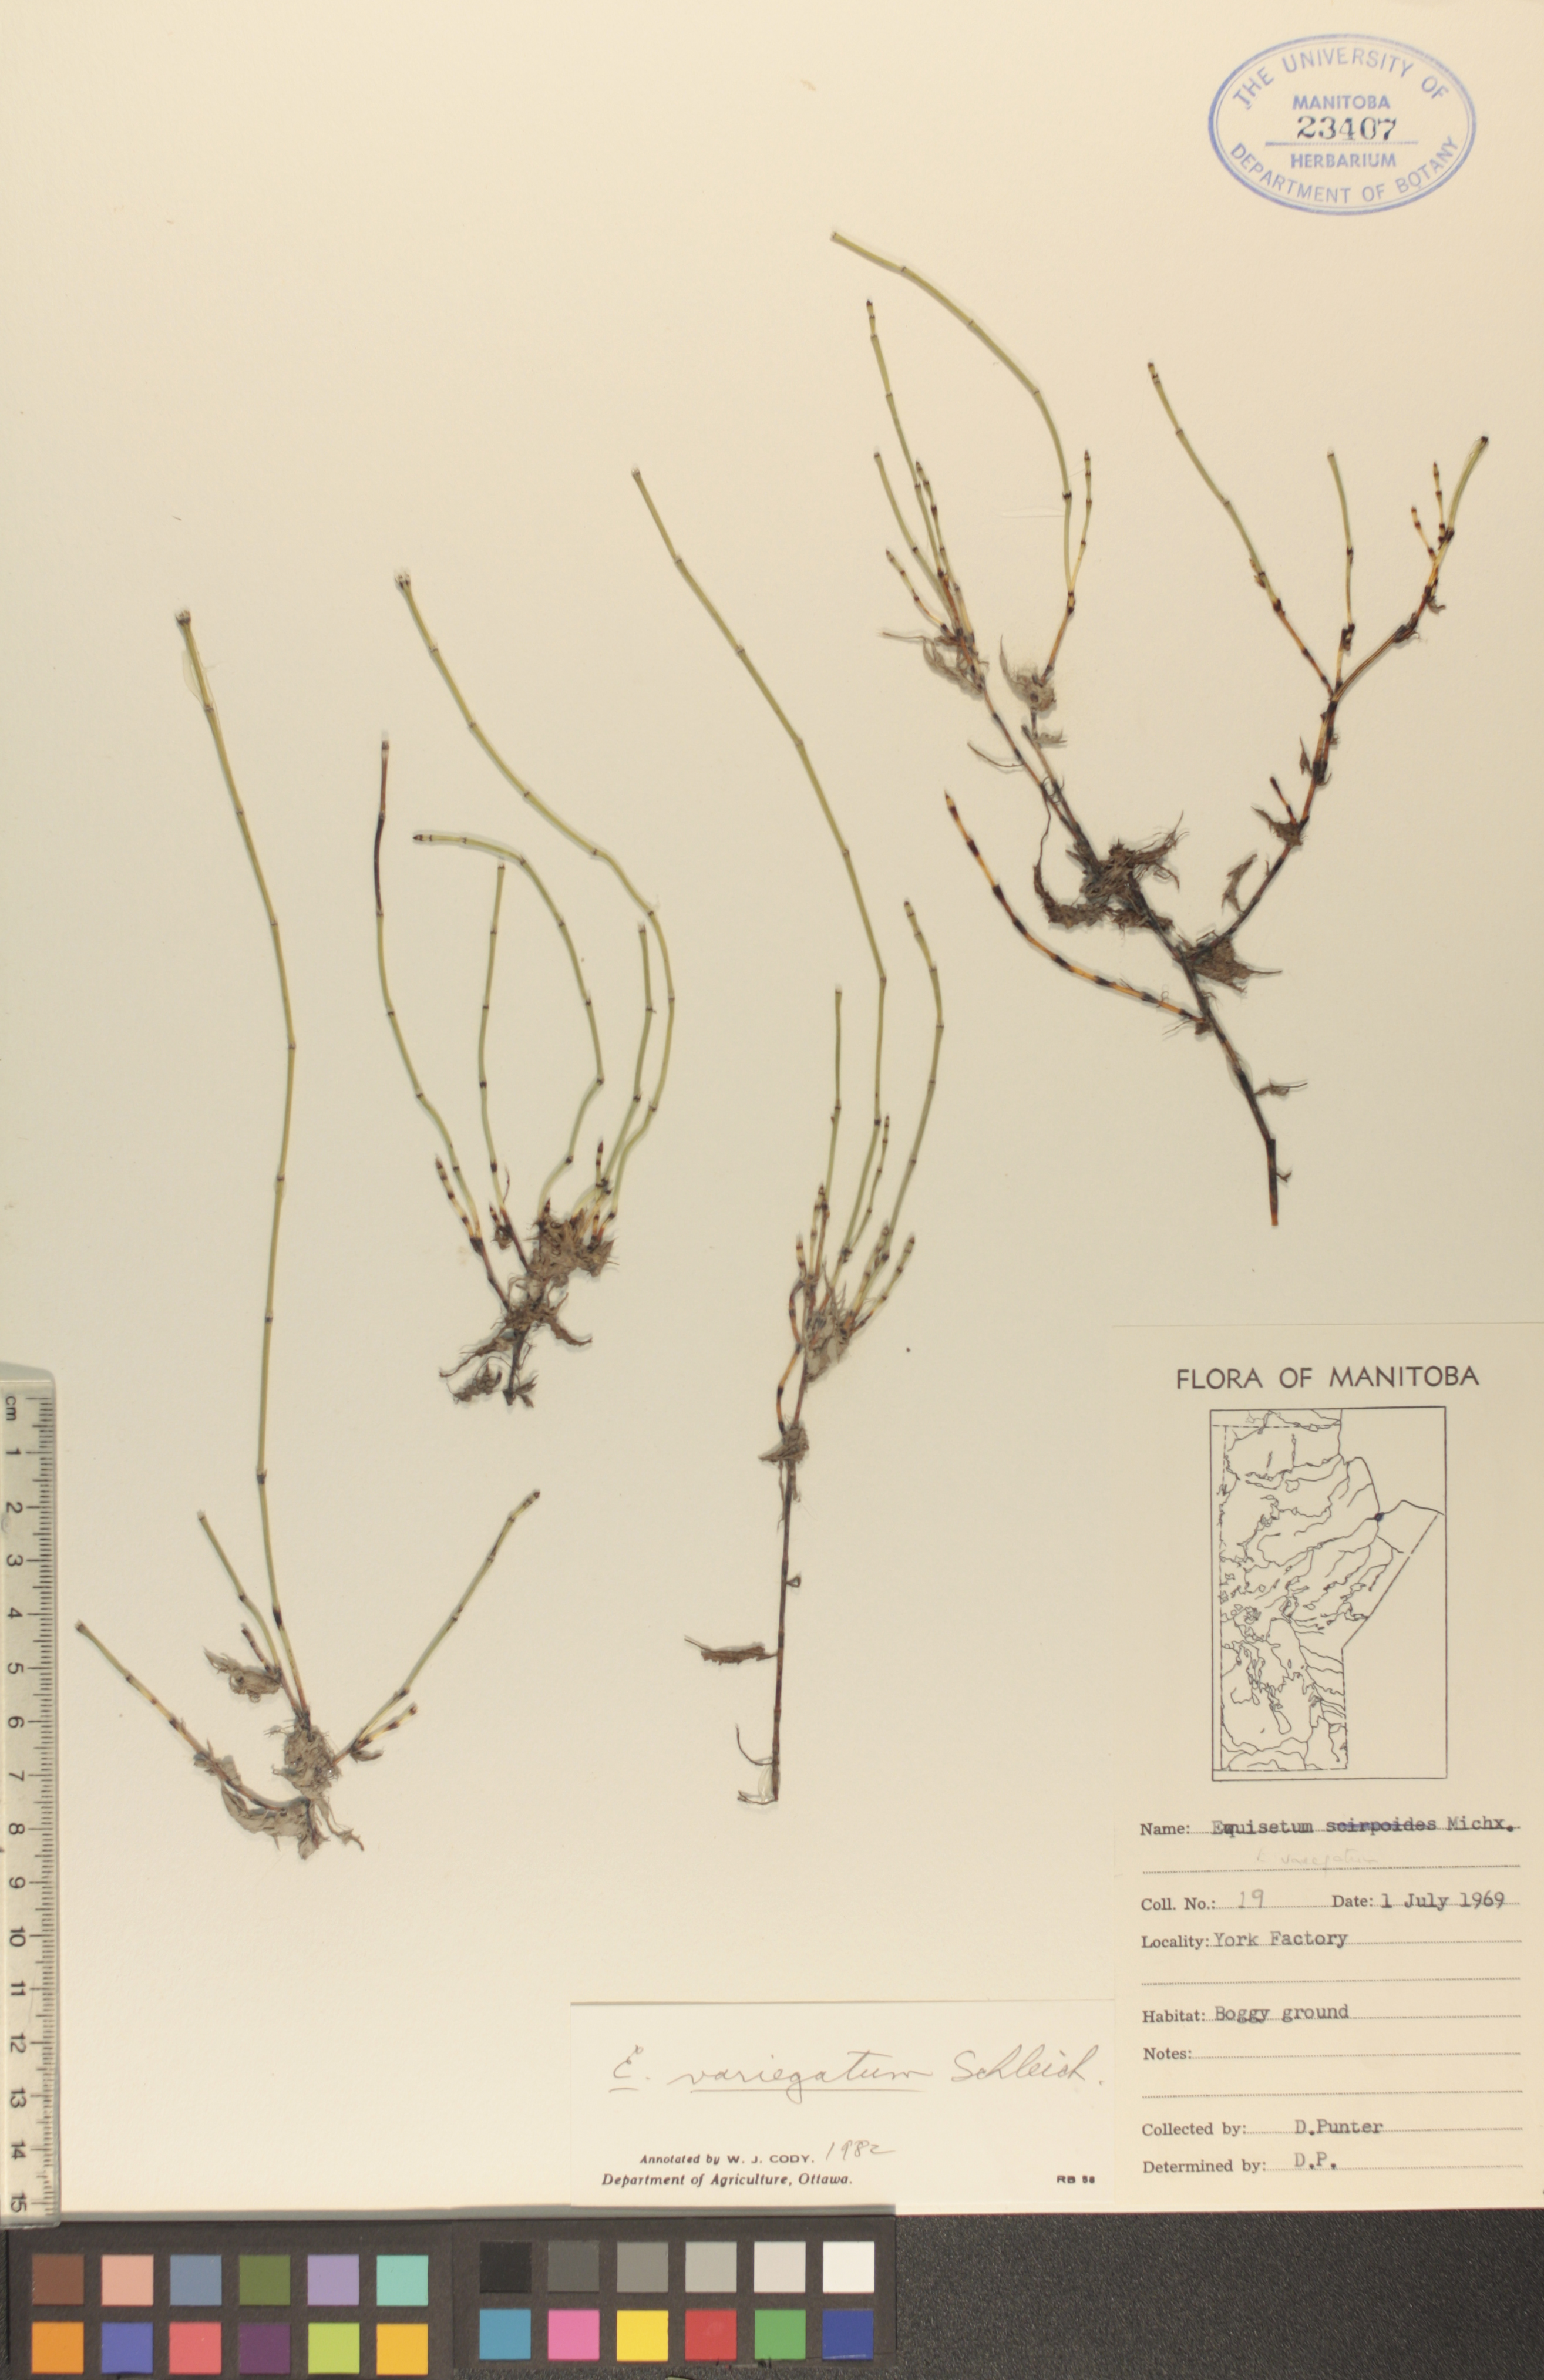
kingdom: Plantae
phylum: Tracheophyta
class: Polypodiopsida
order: Equisetales
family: Equisetaceae
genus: Equisetum
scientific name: Equisetum variegatum
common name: Variegated horsetail
